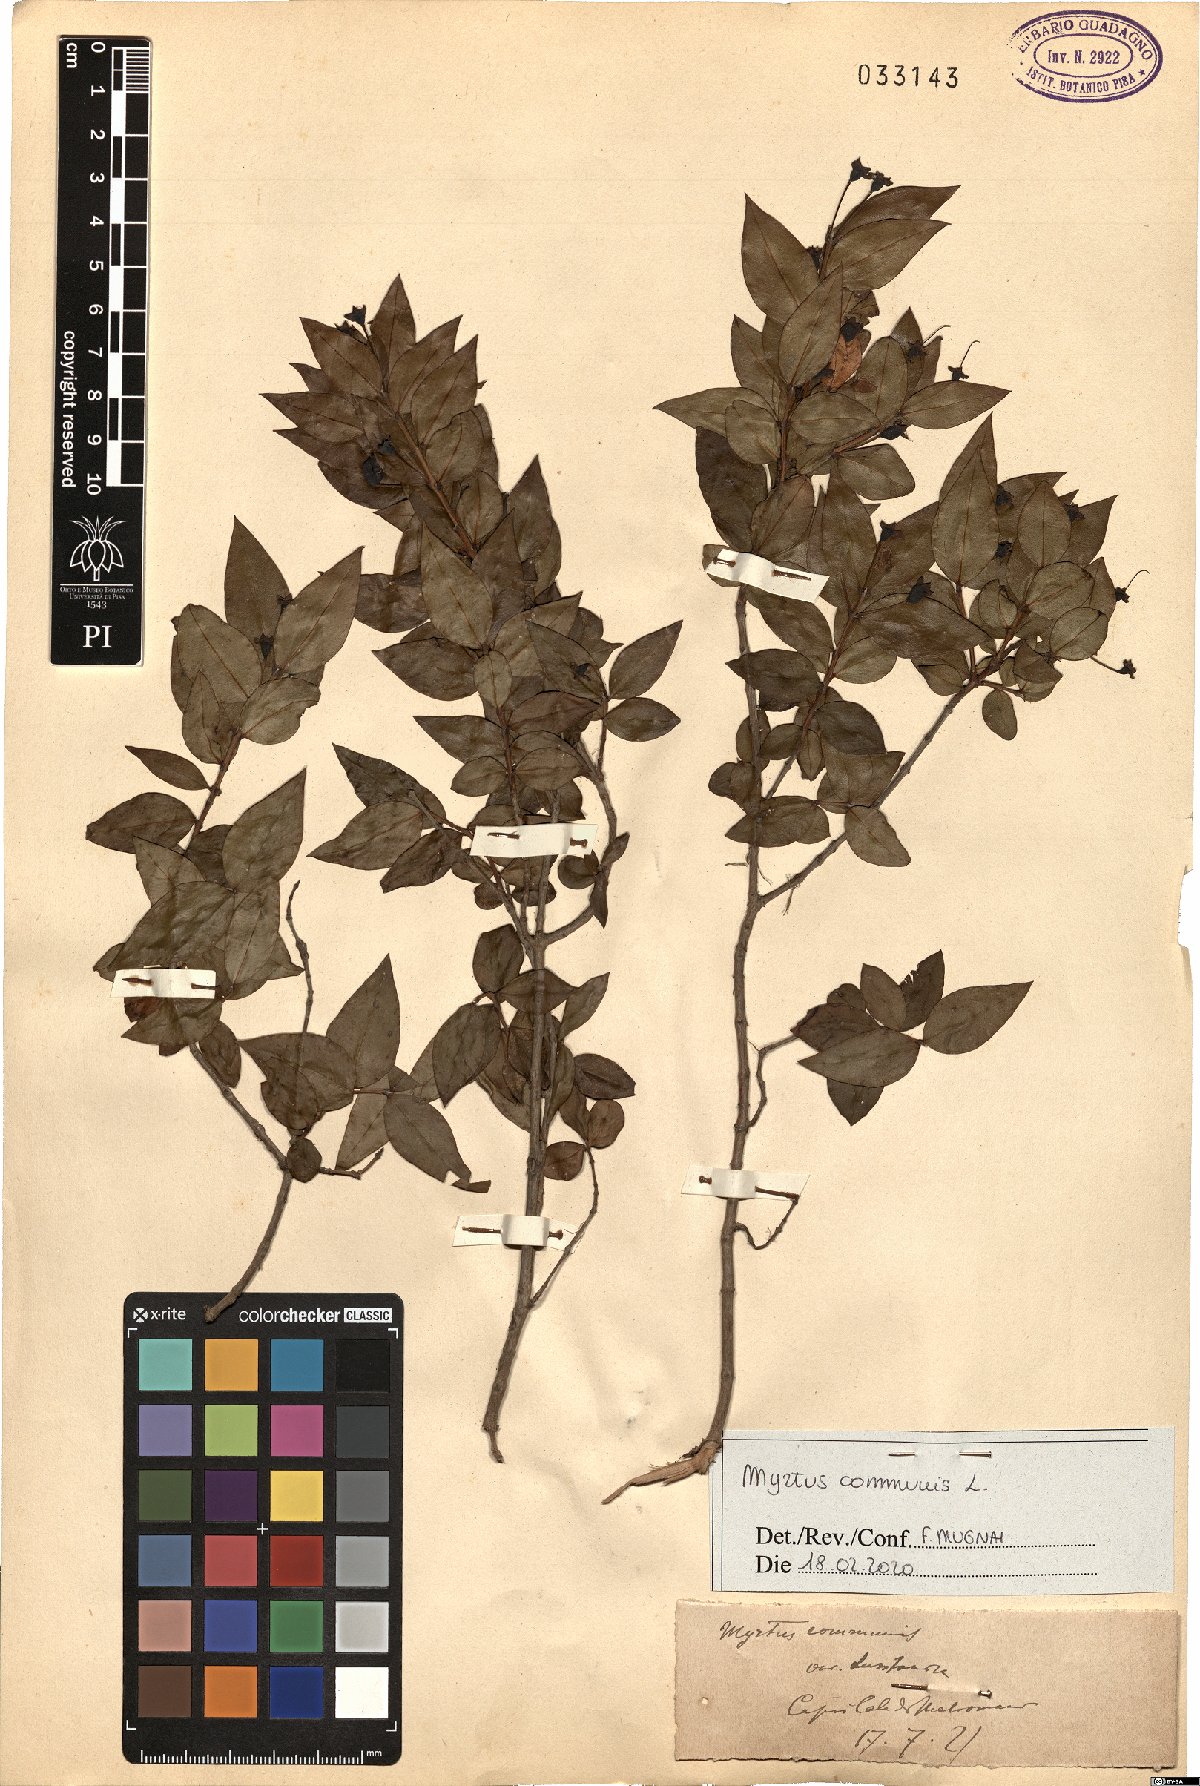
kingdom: Plantae
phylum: Tracheophyta
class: Magnoliopsida
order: Myrtales
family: Myrtaceae
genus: Myrtus
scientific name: Myrtus communis
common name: Myrtle
